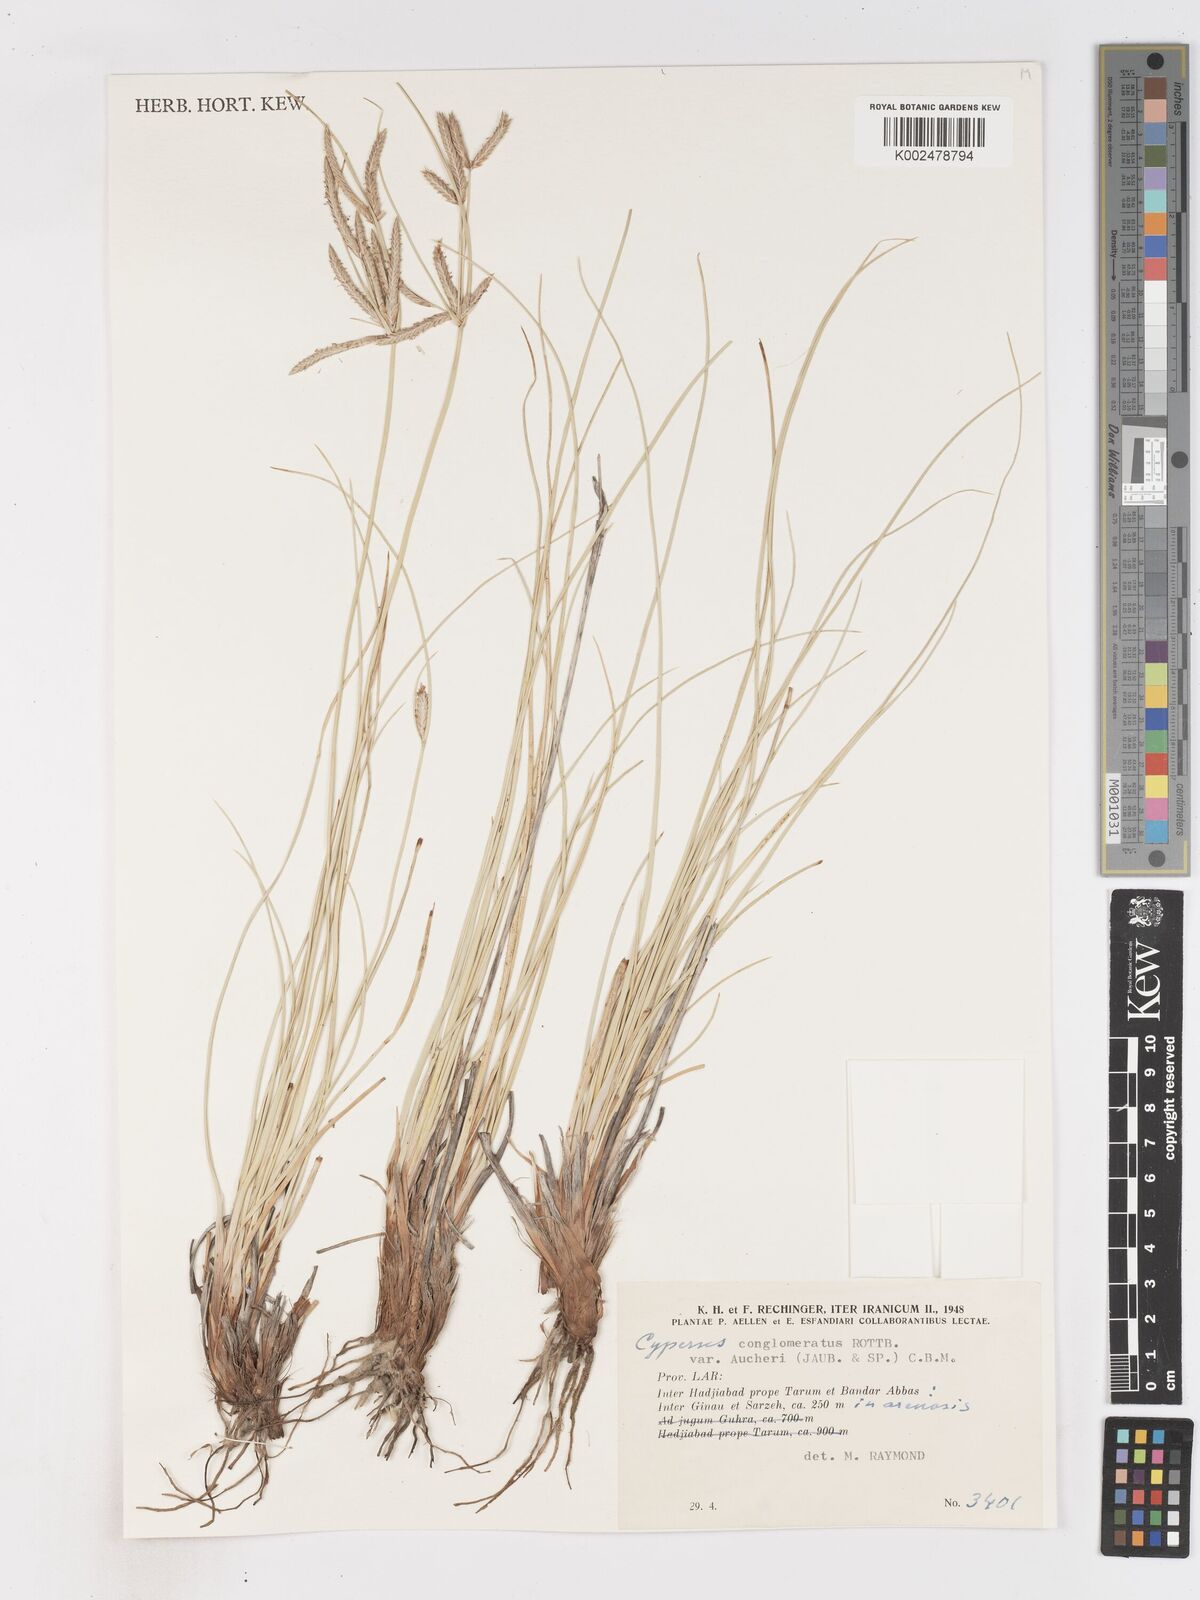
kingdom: Plantae
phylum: Tracheophyta
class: Liliopsida
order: Poales
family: Cyperaceae
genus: Cyperus
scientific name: Cyperus aucheri
